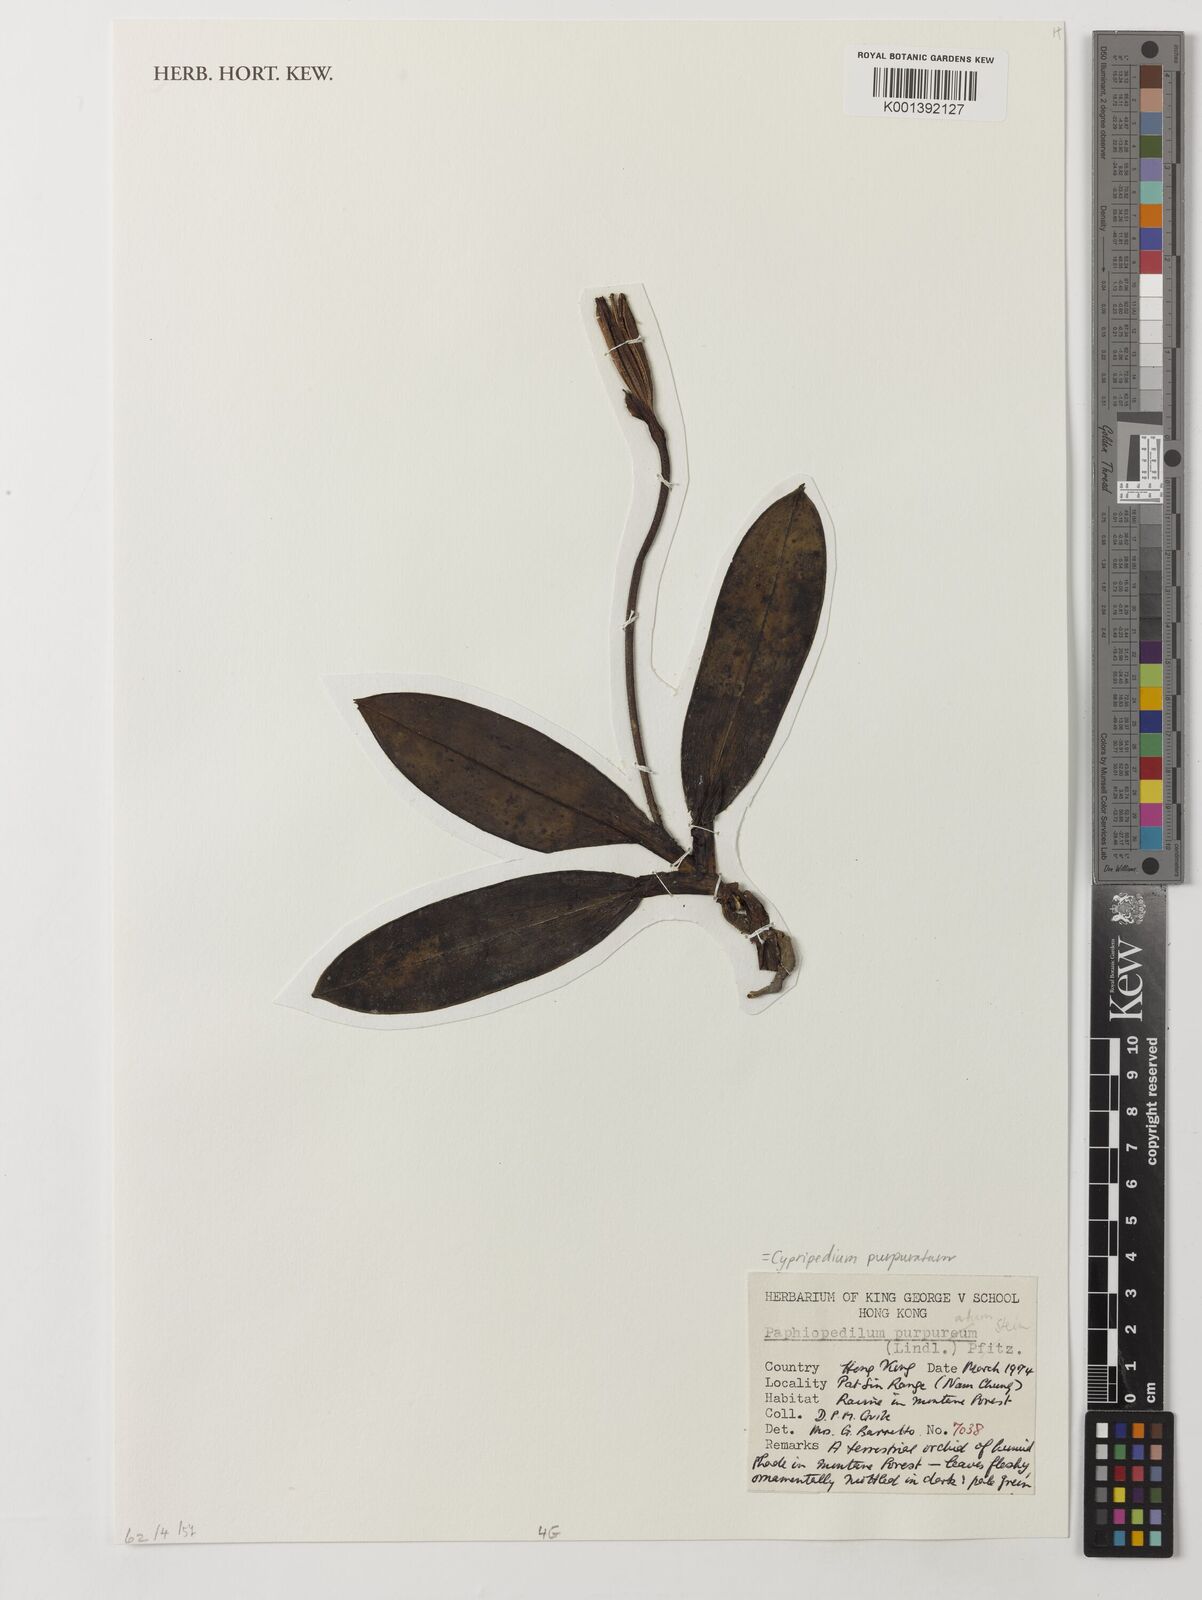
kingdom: Plantae
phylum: Tracheophyta
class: Liliopsida
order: Asparagales
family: Orchidaceae
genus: Paphiopedilum
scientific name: Paphiopedilum
